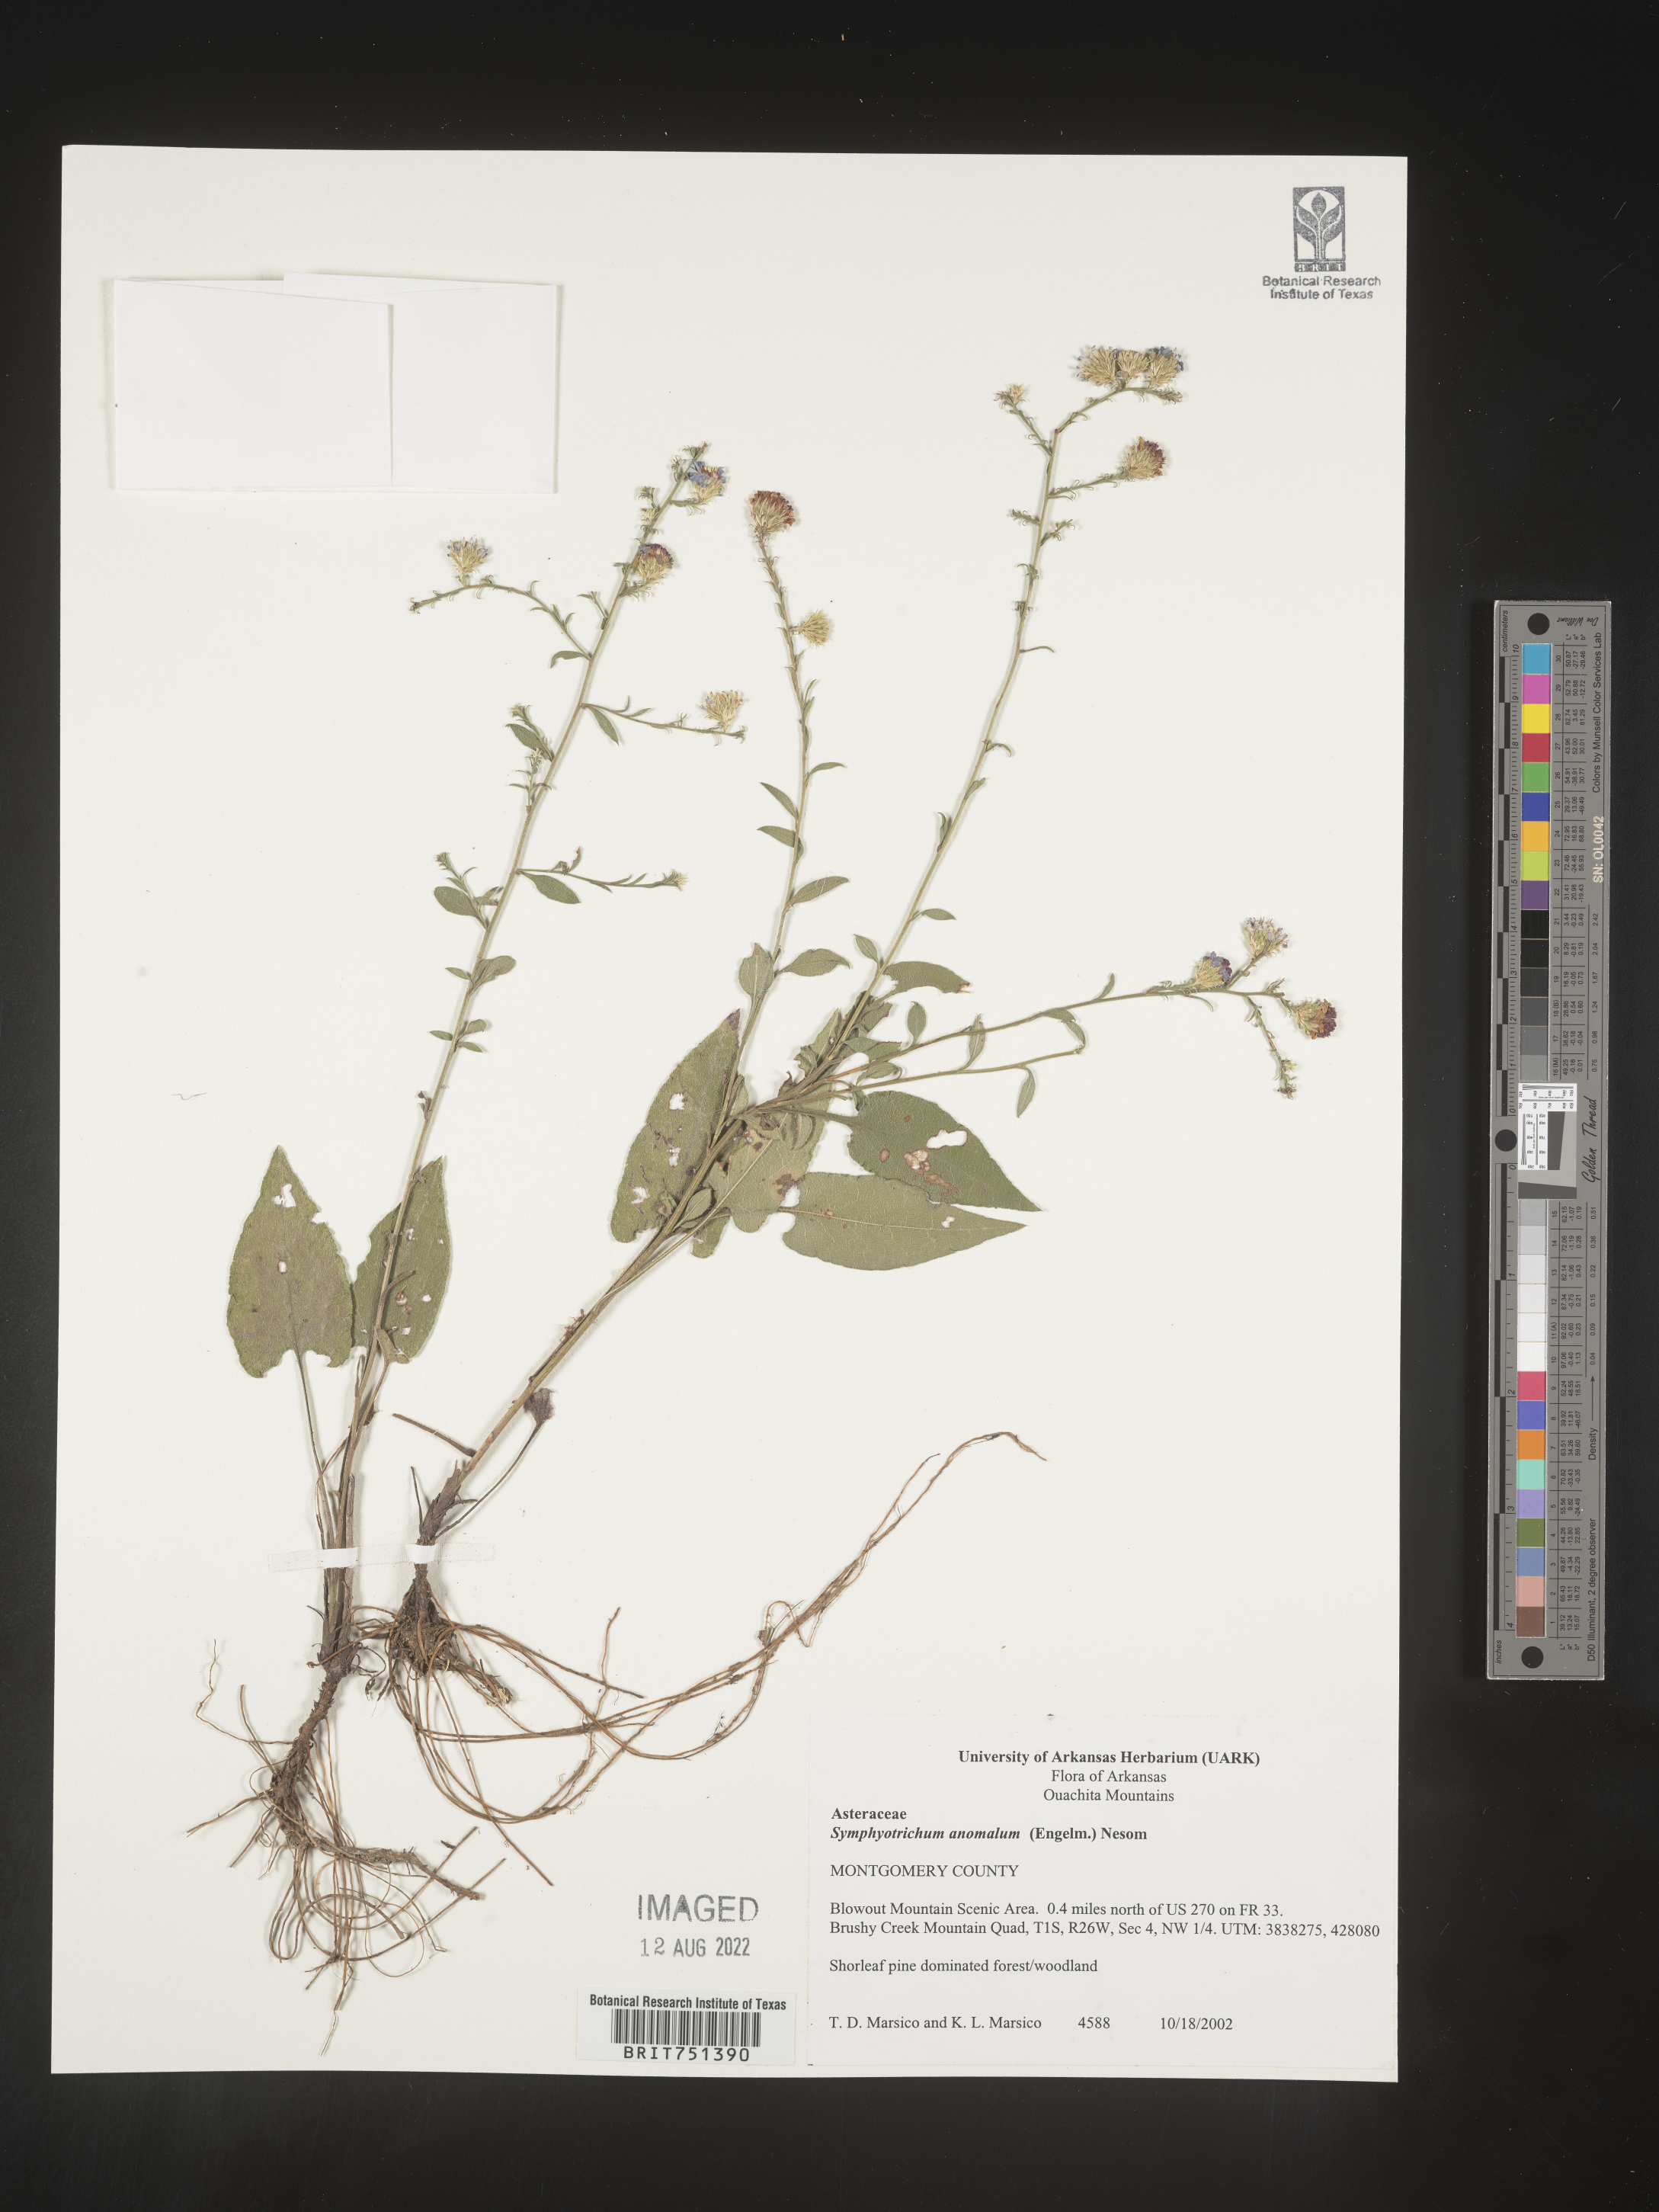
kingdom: Plantae
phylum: Tracheophyta
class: Magnoliopsida
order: Asterales
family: Asteraceae
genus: Symphyotrichum
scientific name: Symphyotrichum anomalum
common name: Many-ray aster
